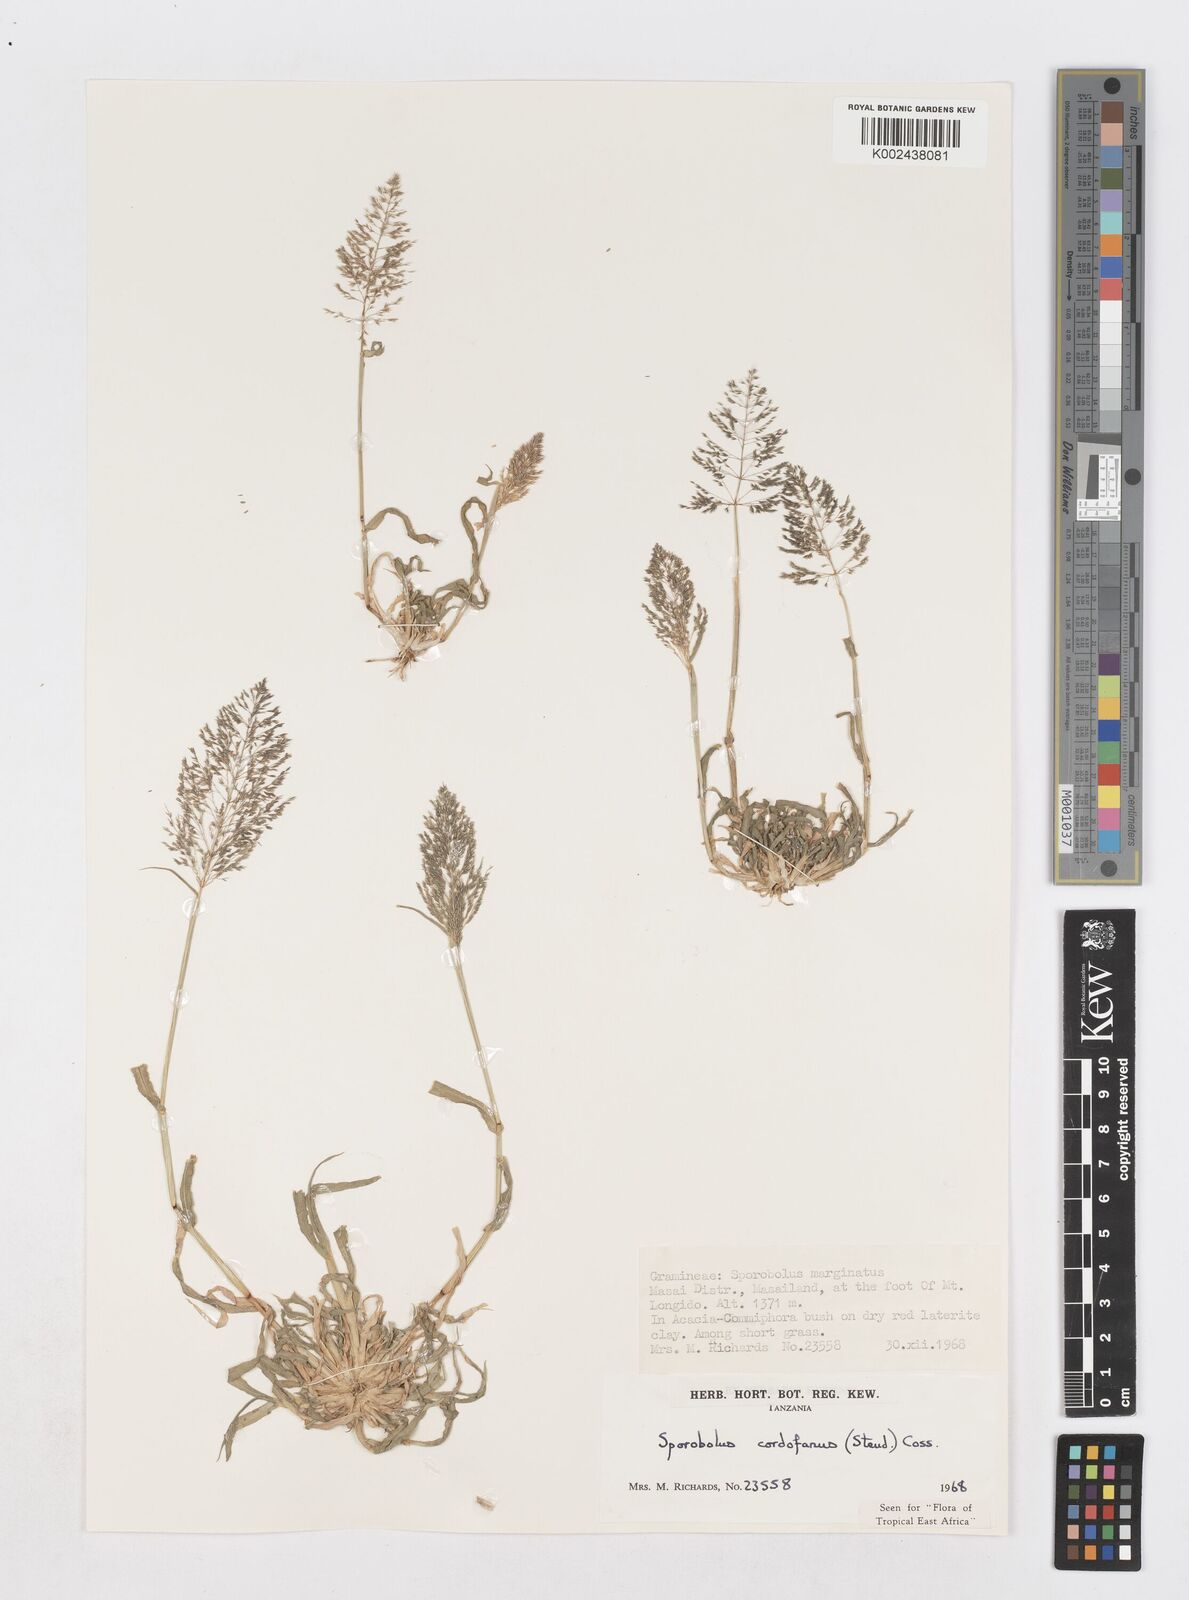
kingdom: Plantae
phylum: Tracheophyta
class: Liliopsida
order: Poales
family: Poaceae
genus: Sporobolus
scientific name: Sporobolus cordofanus
